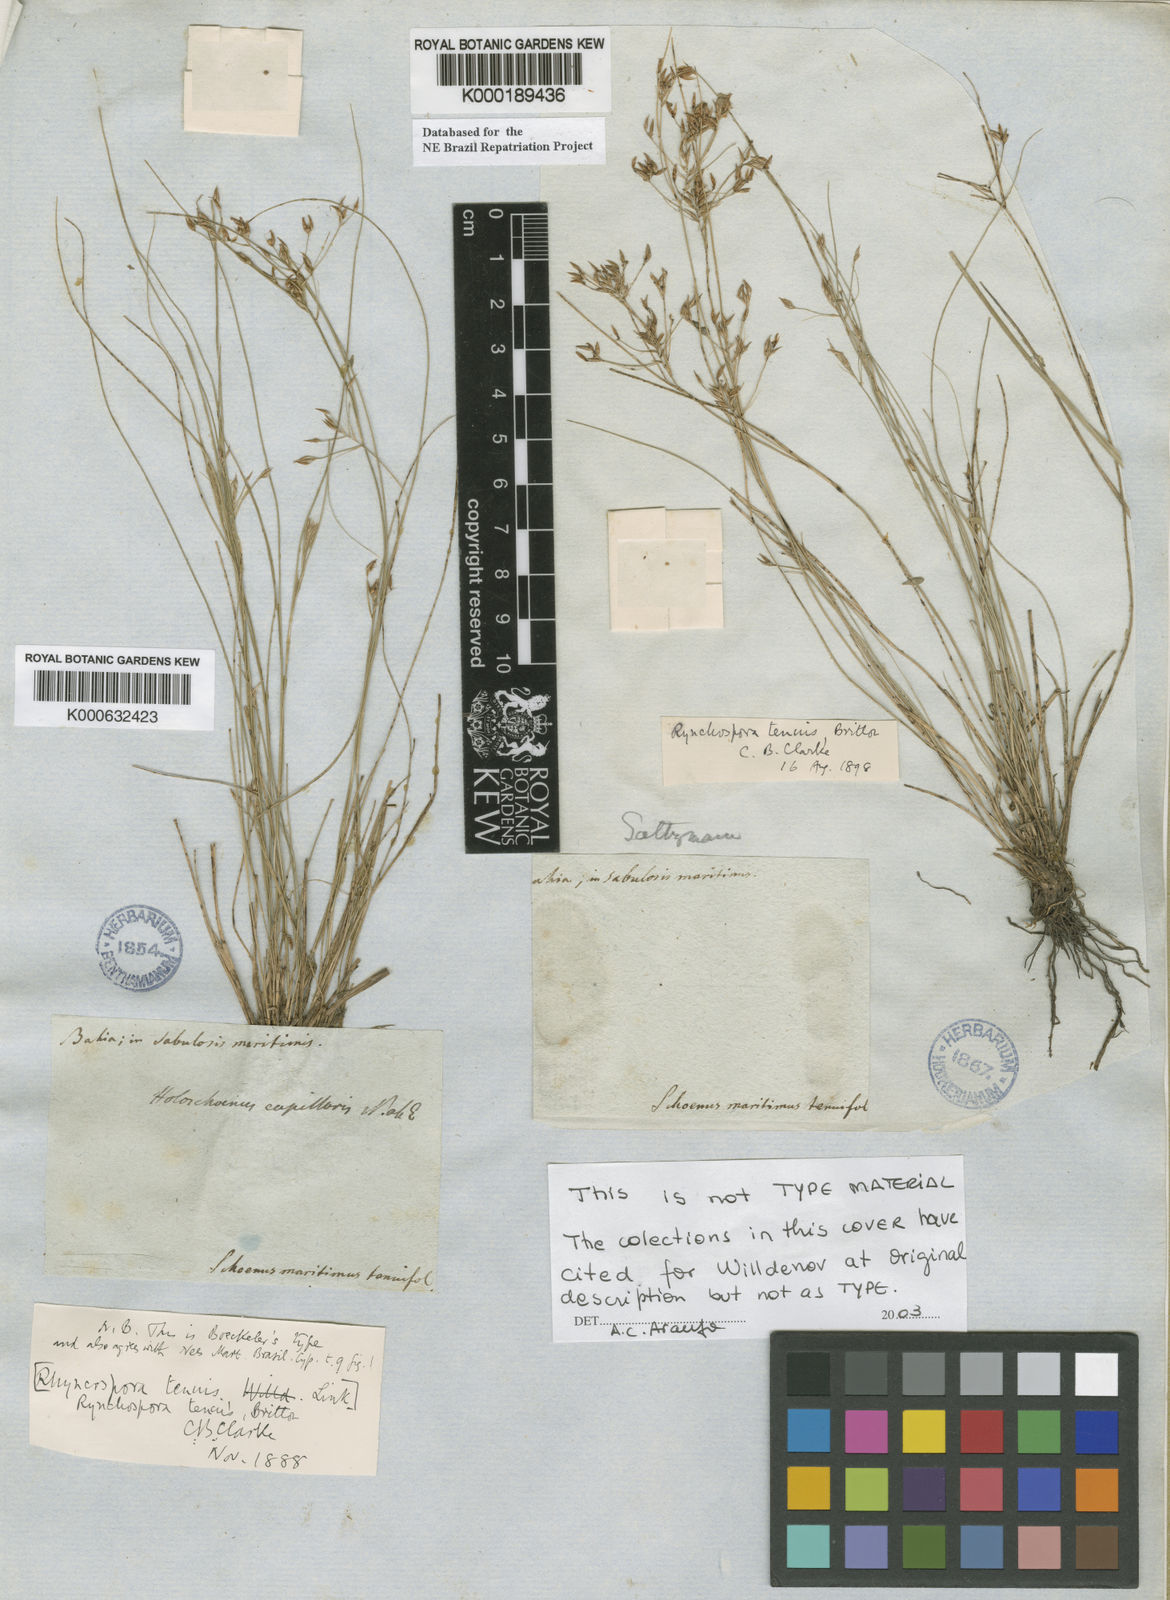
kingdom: Plantae
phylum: Tracheophyta
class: Liliopsida
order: Poales
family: Cyperaceae
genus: Rhynchospora
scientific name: Rhynchospora riparia
